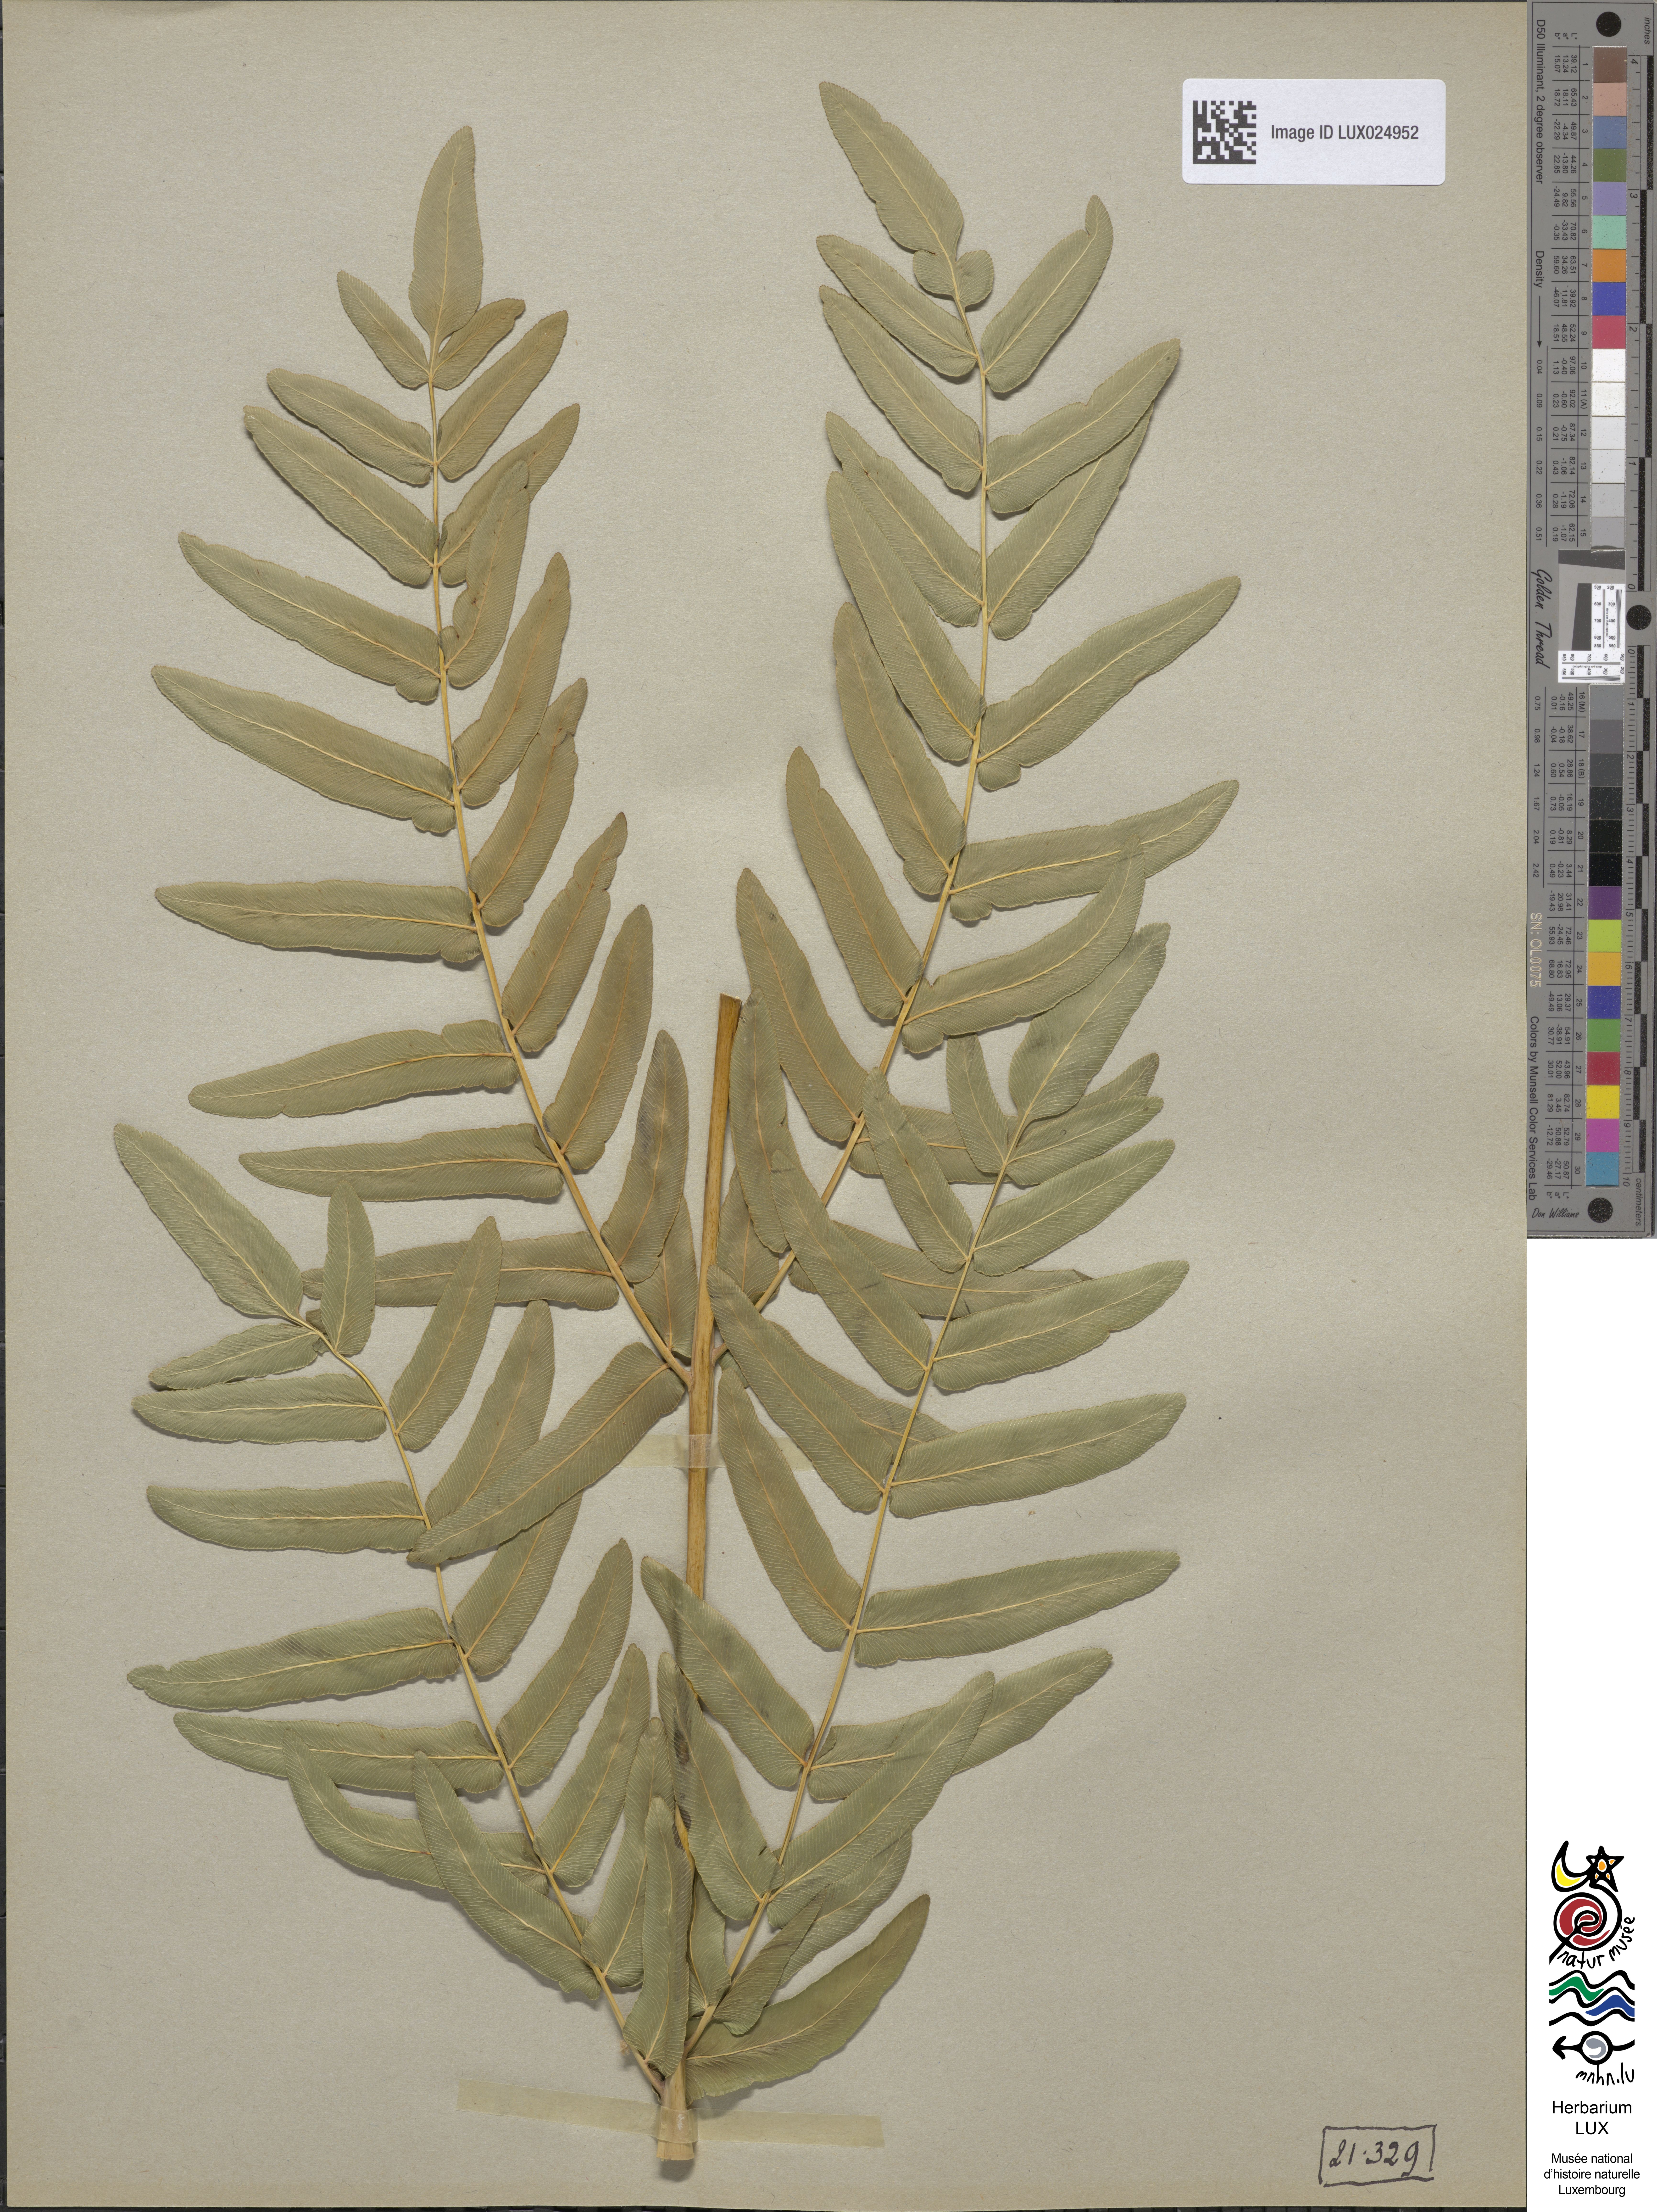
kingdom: Plantae
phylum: Tracheophyta
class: Polypodiopsida
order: Osmundales
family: Osmundaceae
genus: Osmunda
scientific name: Osmunda regalis
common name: Royal fern
